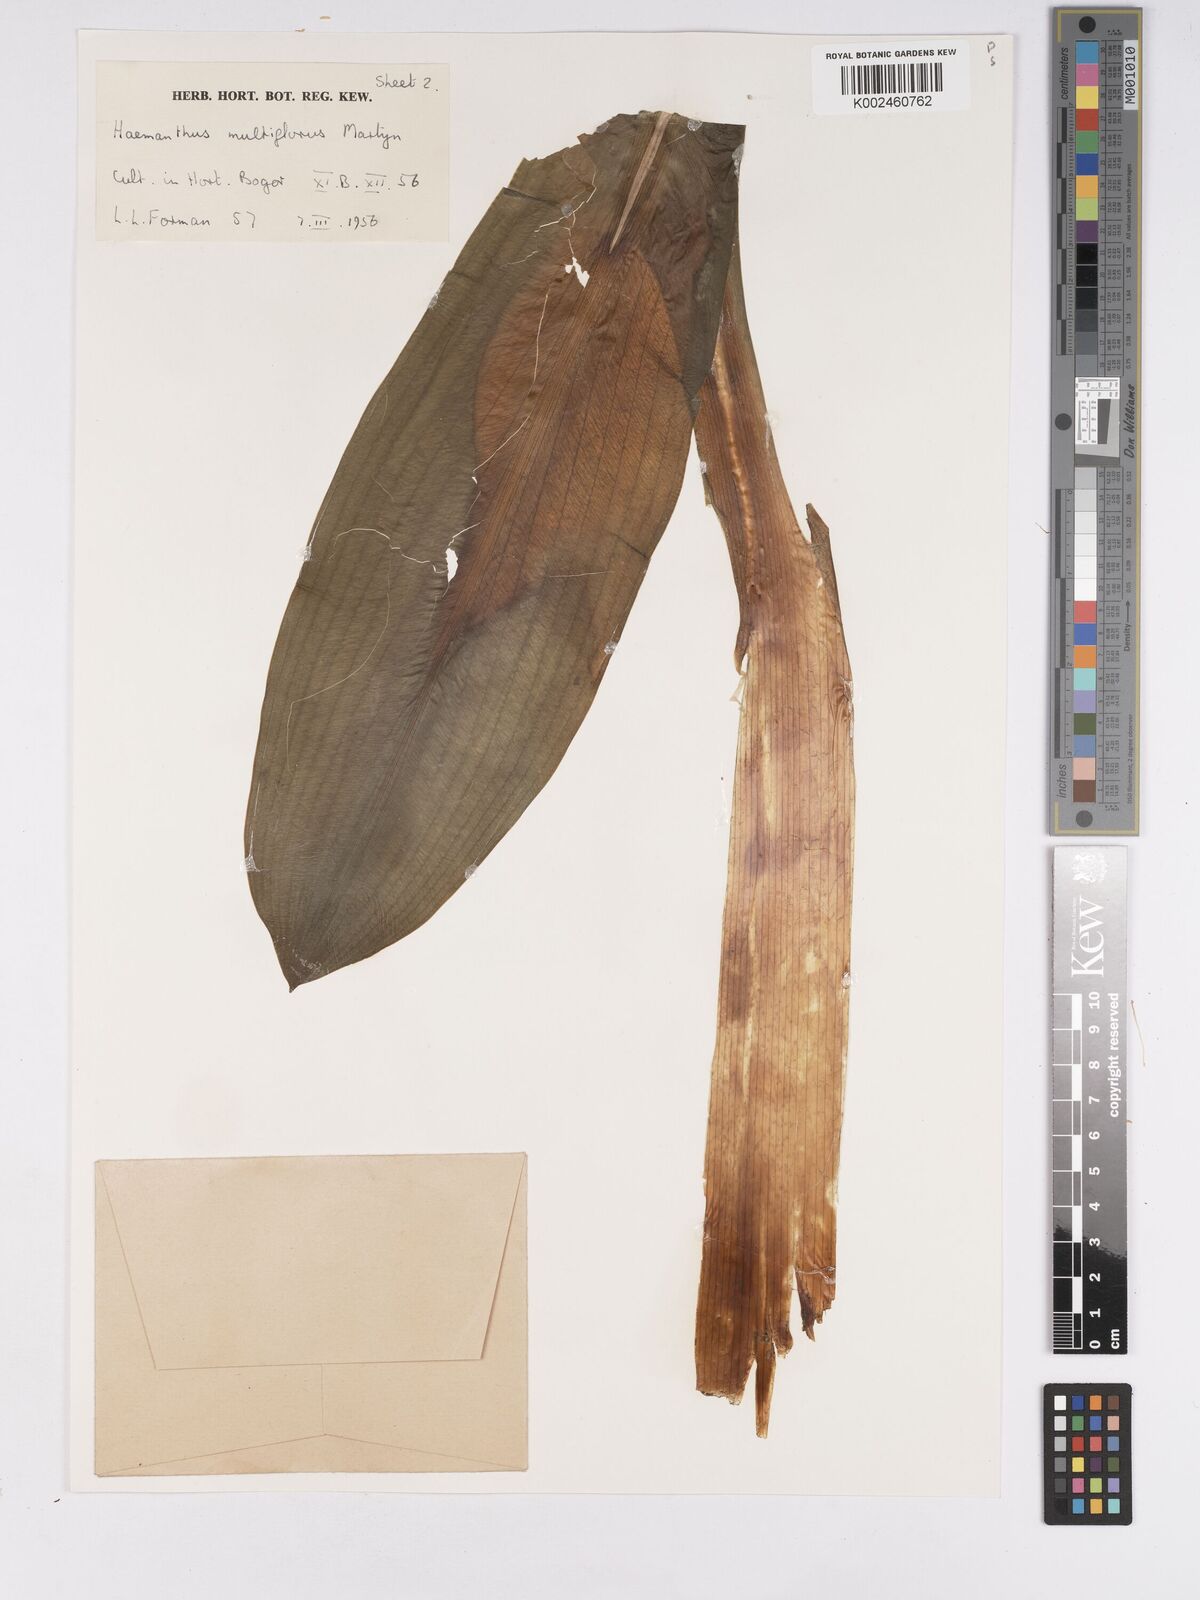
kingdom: Plantae
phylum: Tracheophyta
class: Liliopsida
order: Asparagales
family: Amaryllidaceae
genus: Scadoxus
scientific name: Scadoxus
